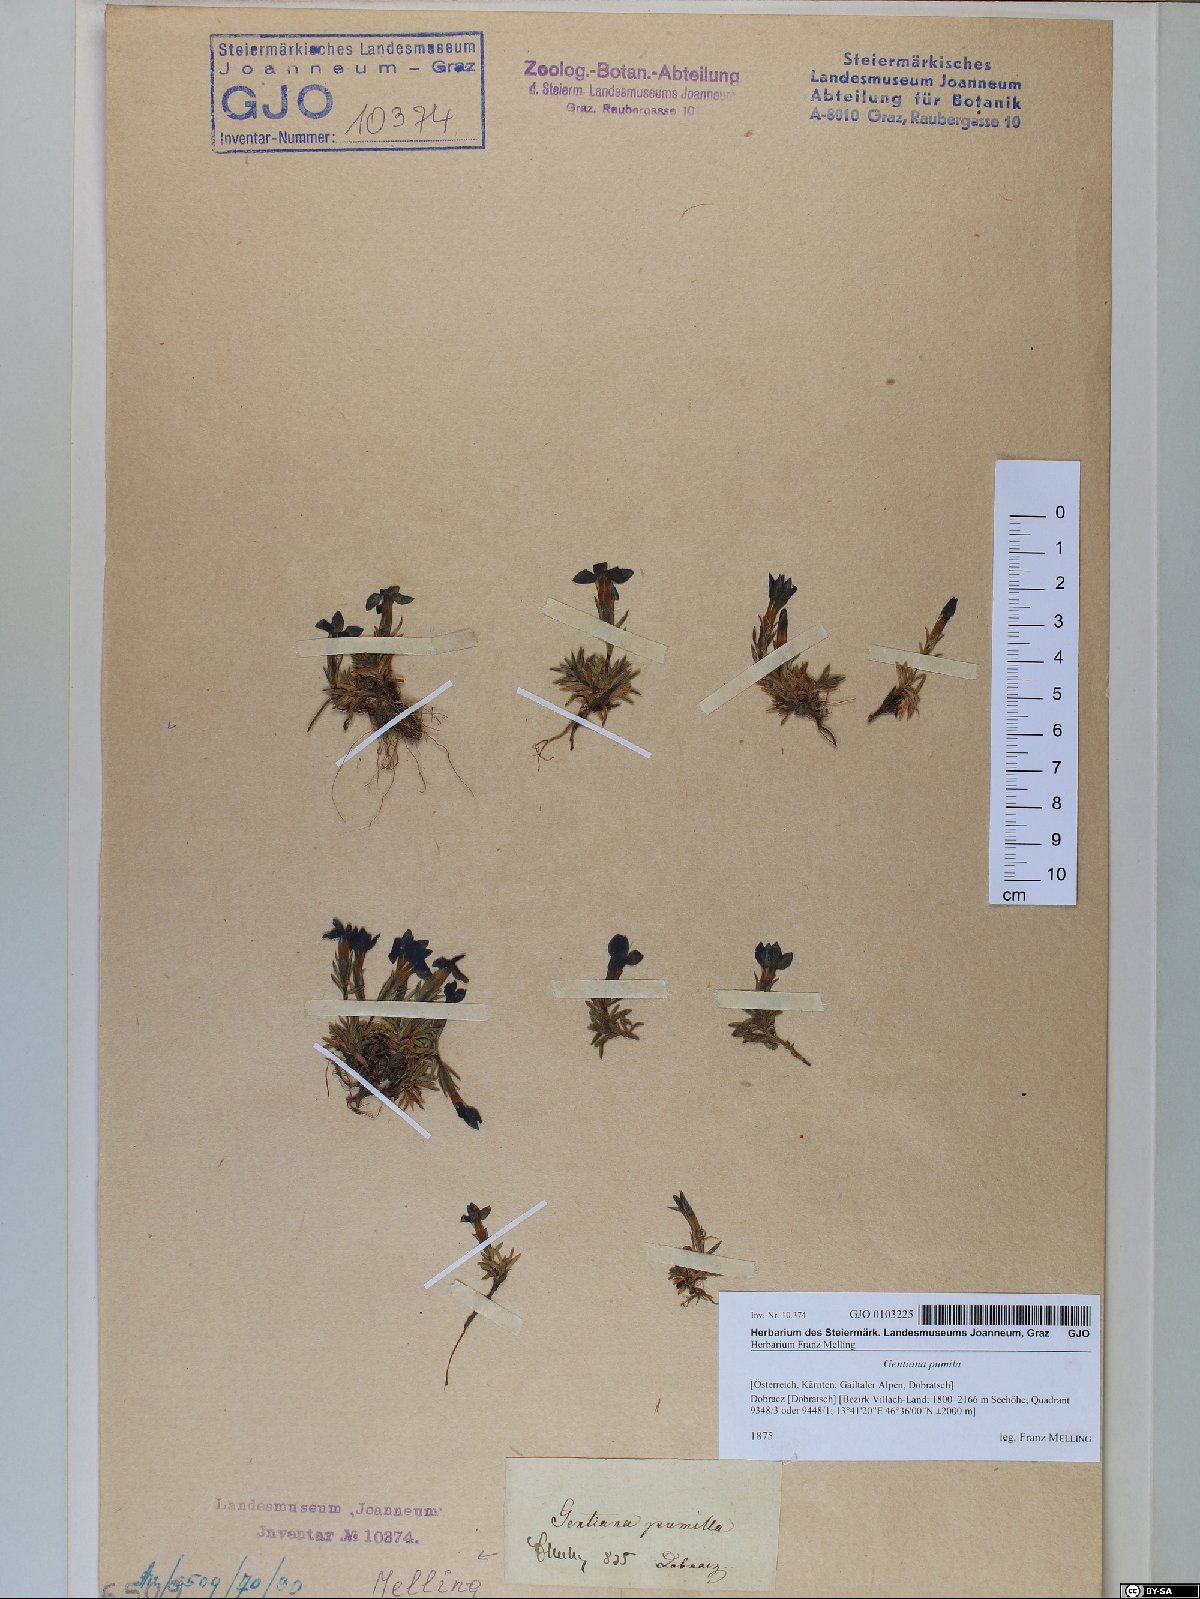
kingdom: Plantae
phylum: Tracheophyta
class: Magnoliopsida
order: Gentianales
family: Gentianaceae
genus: Gentiana
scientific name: Gentiana pumila
